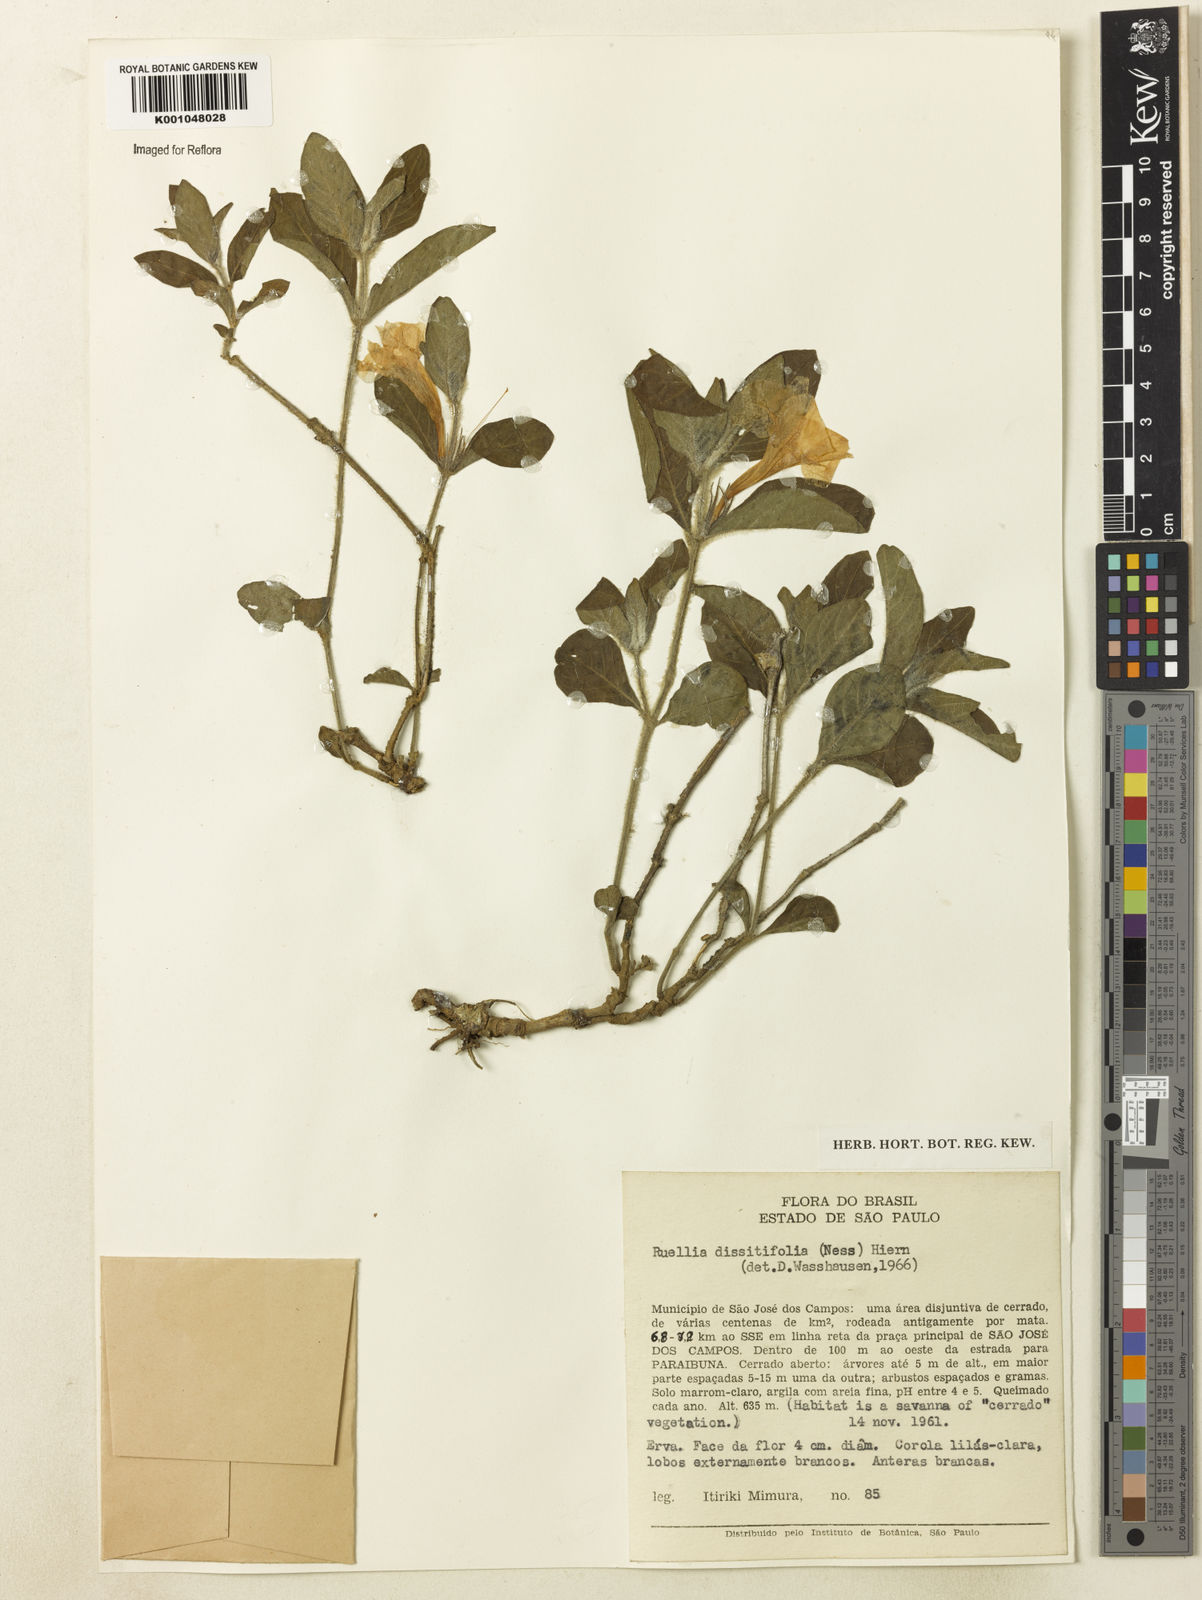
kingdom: Plantae
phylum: Tracheophyta
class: Magnoliopsida
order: Lamiales
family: Acanthaceae
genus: Ruellia
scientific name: Ruellia dissitifolia
